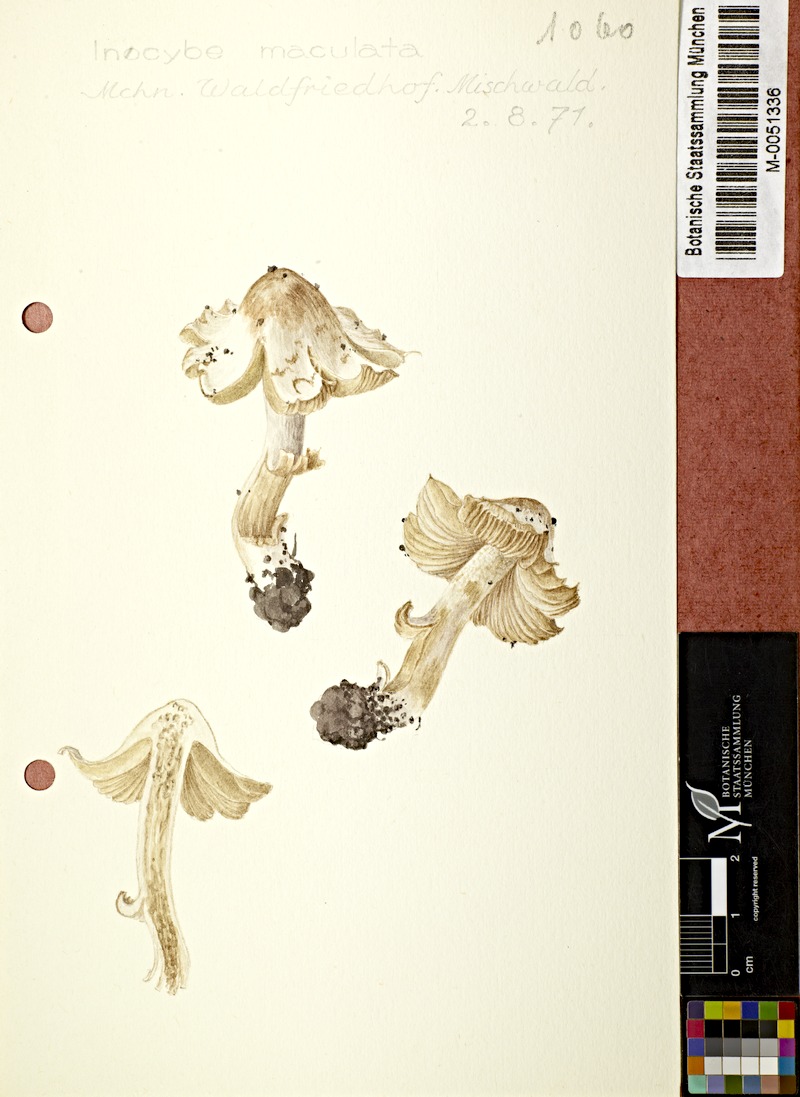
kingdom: Fungi
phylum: Basidiomycota
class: Agaricomycetes
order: Agaricales
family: Inocybaceae
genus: Inosperma
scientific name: Inosperma maculatum
